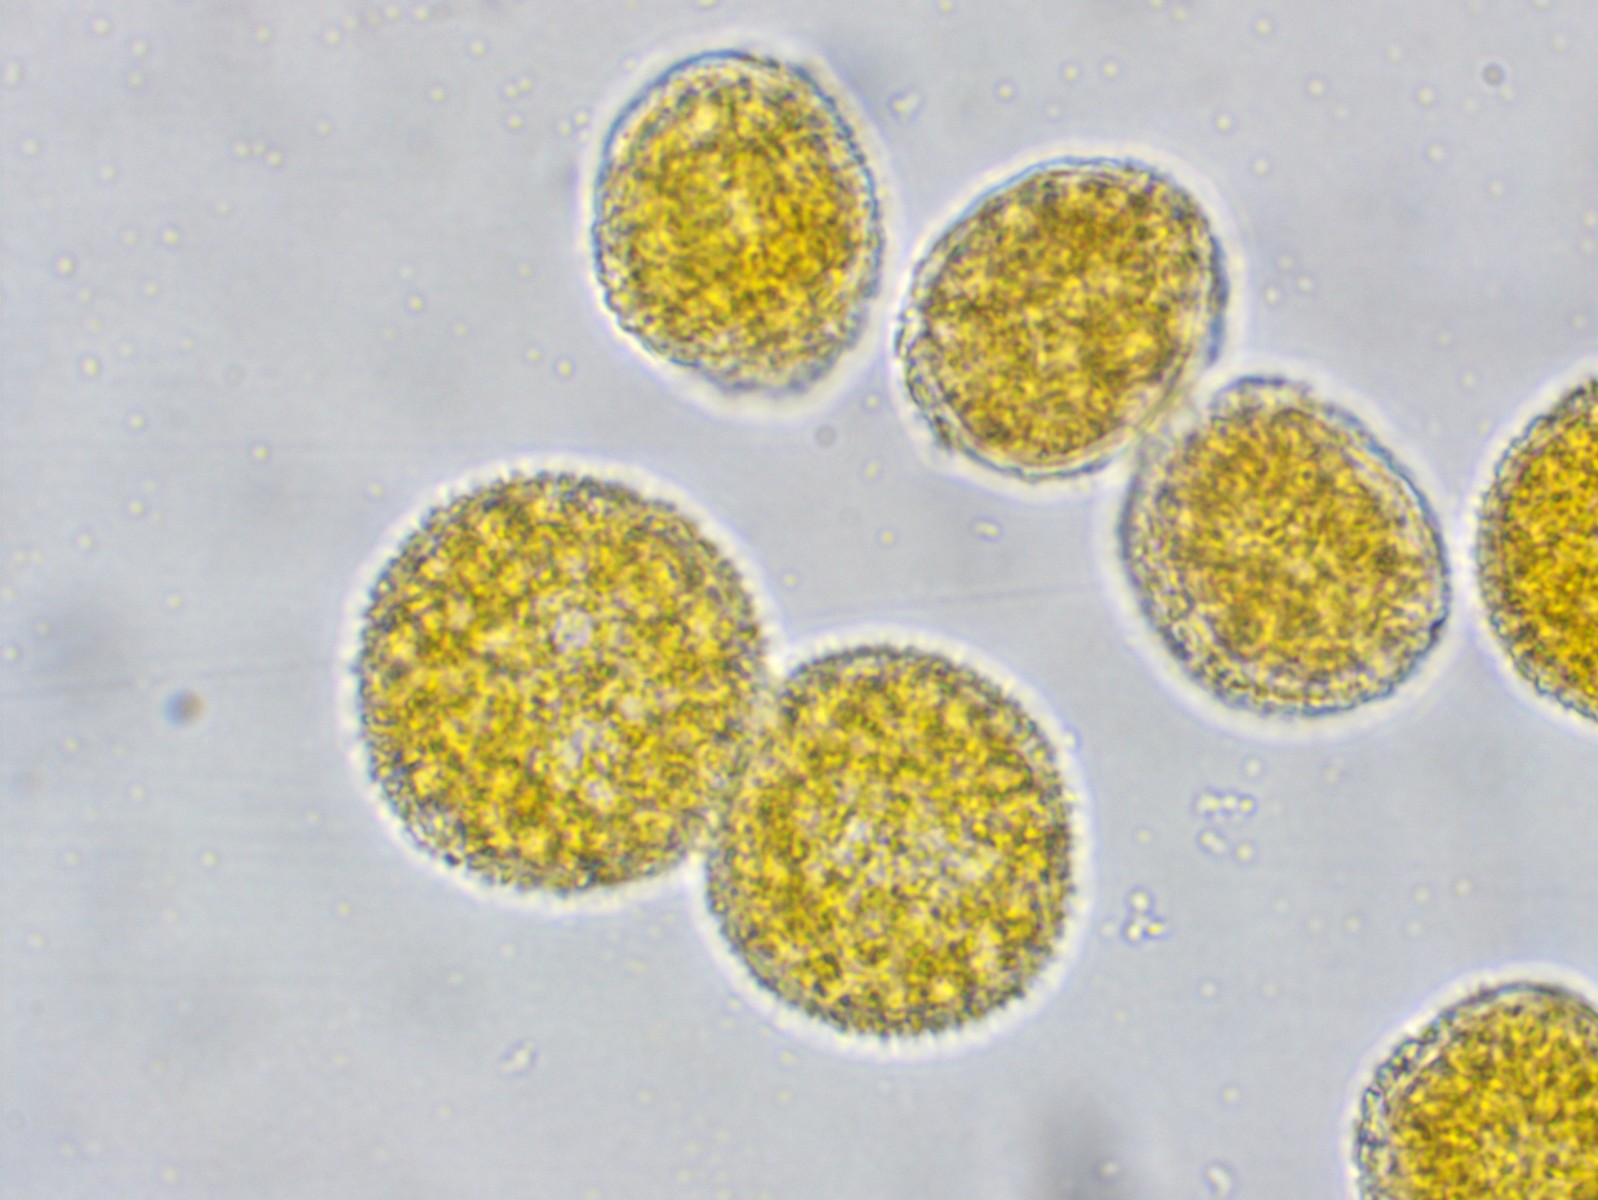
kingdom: Fungi
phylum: Basidiomycota
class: Pucciniomycetes
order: Pucciniales
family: Coleosporiaceae
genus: Coleosporium
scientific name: Coleosporium sonchi
